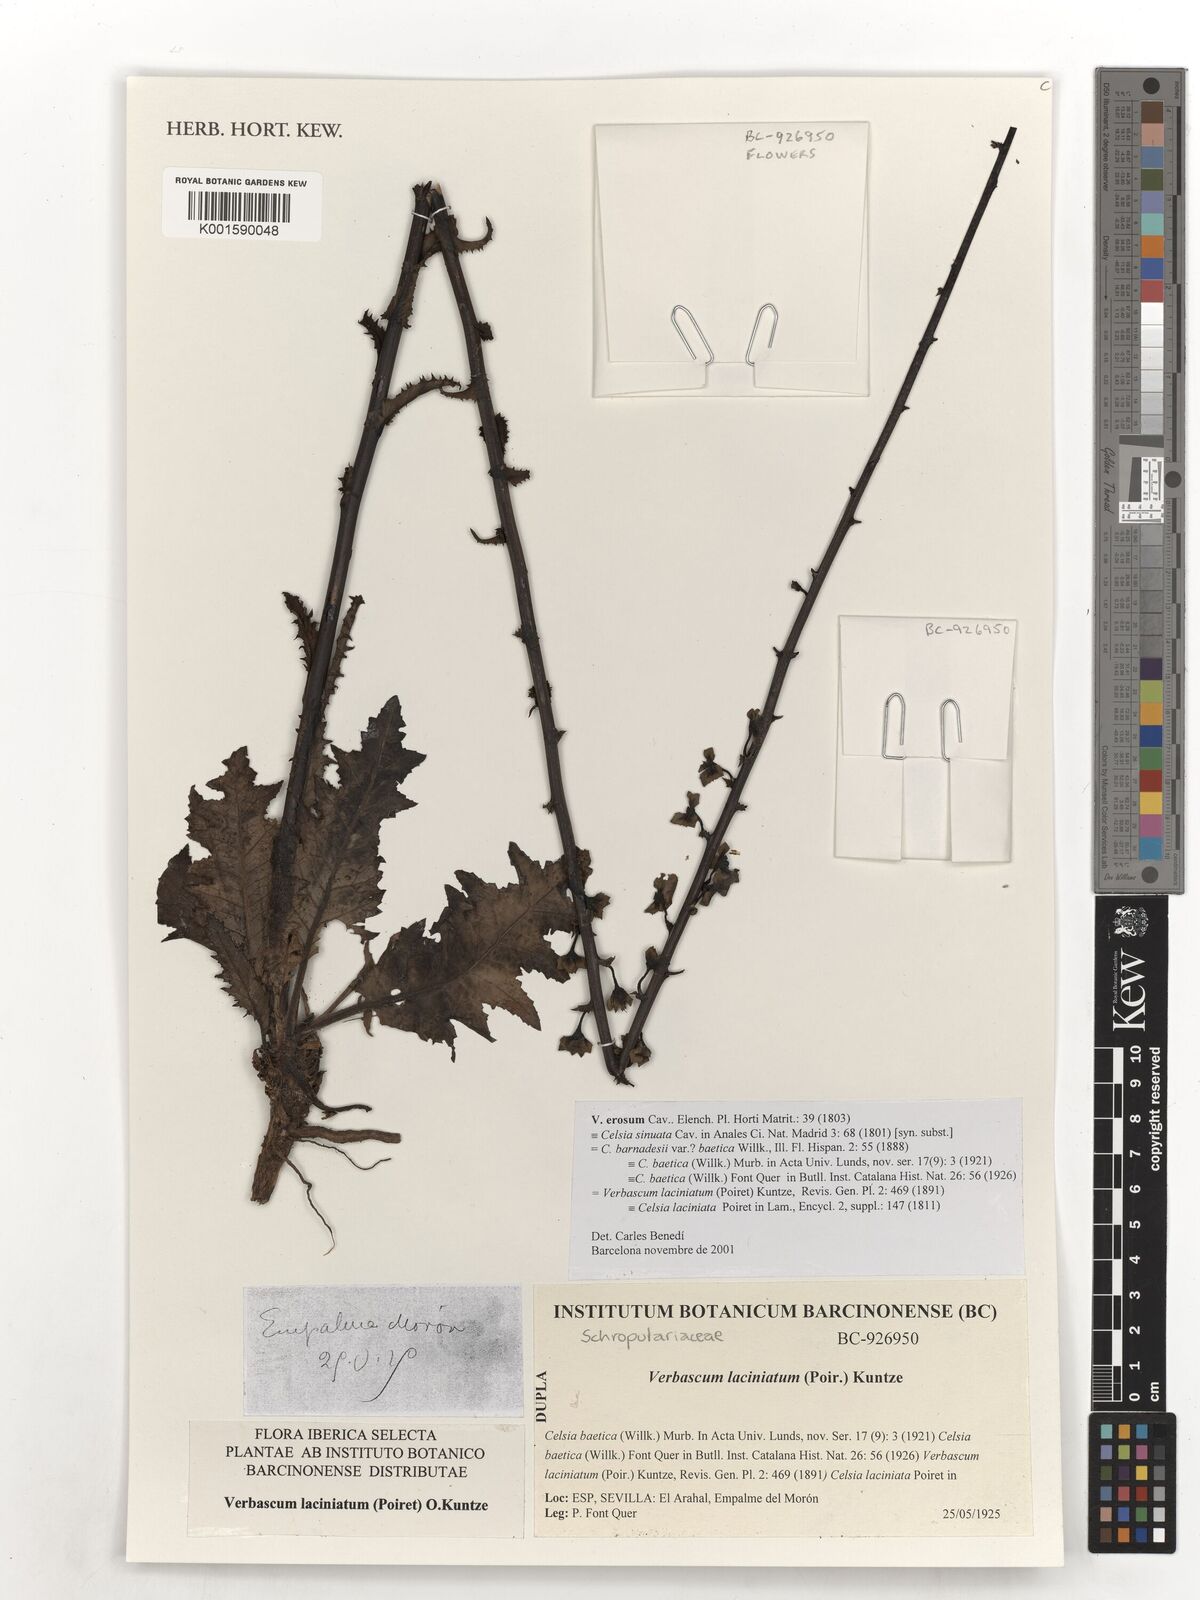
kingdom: Plantae
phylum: Tracheophyta
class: Magnoliopsida
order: Lamiales
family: Scrophulariaceae
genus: Verbascum
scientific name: Verbascum erosum
